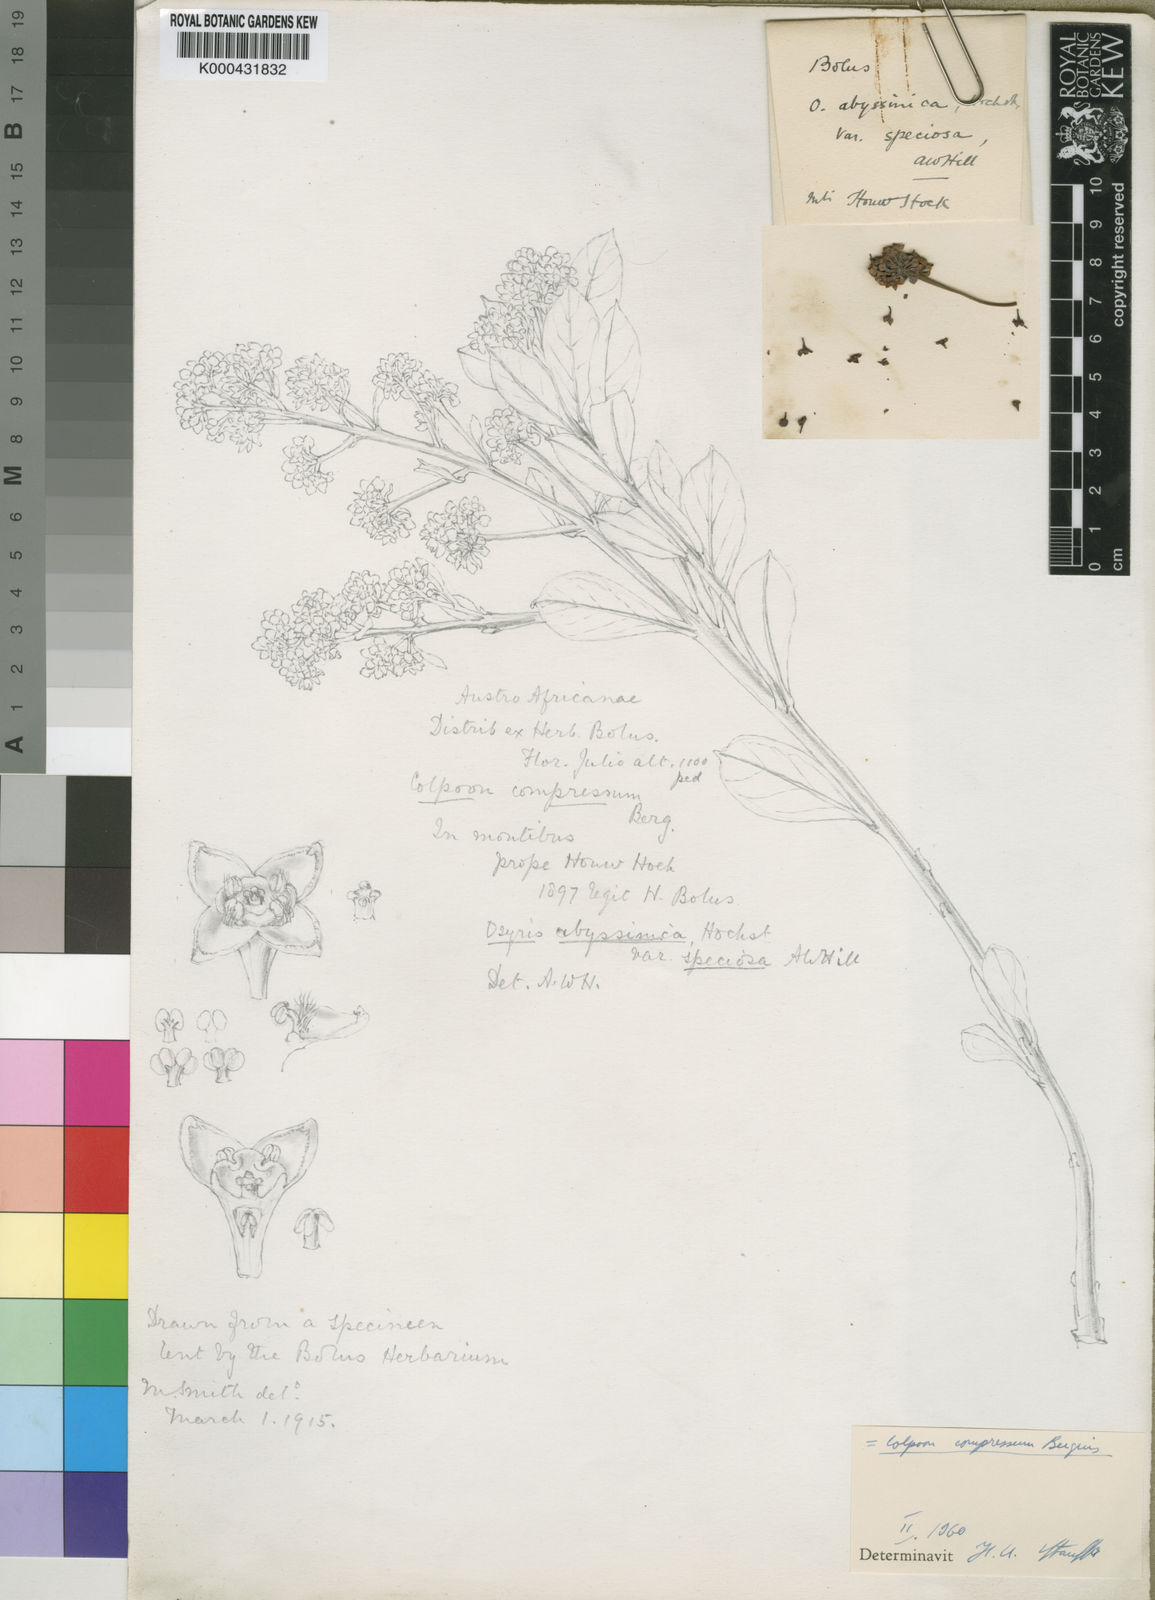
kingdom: Plantae
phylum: Tracheophyta
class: Magnoliopsida
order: Santalales
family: Santalaceae
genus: Osyris
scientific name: Osyris compressa
